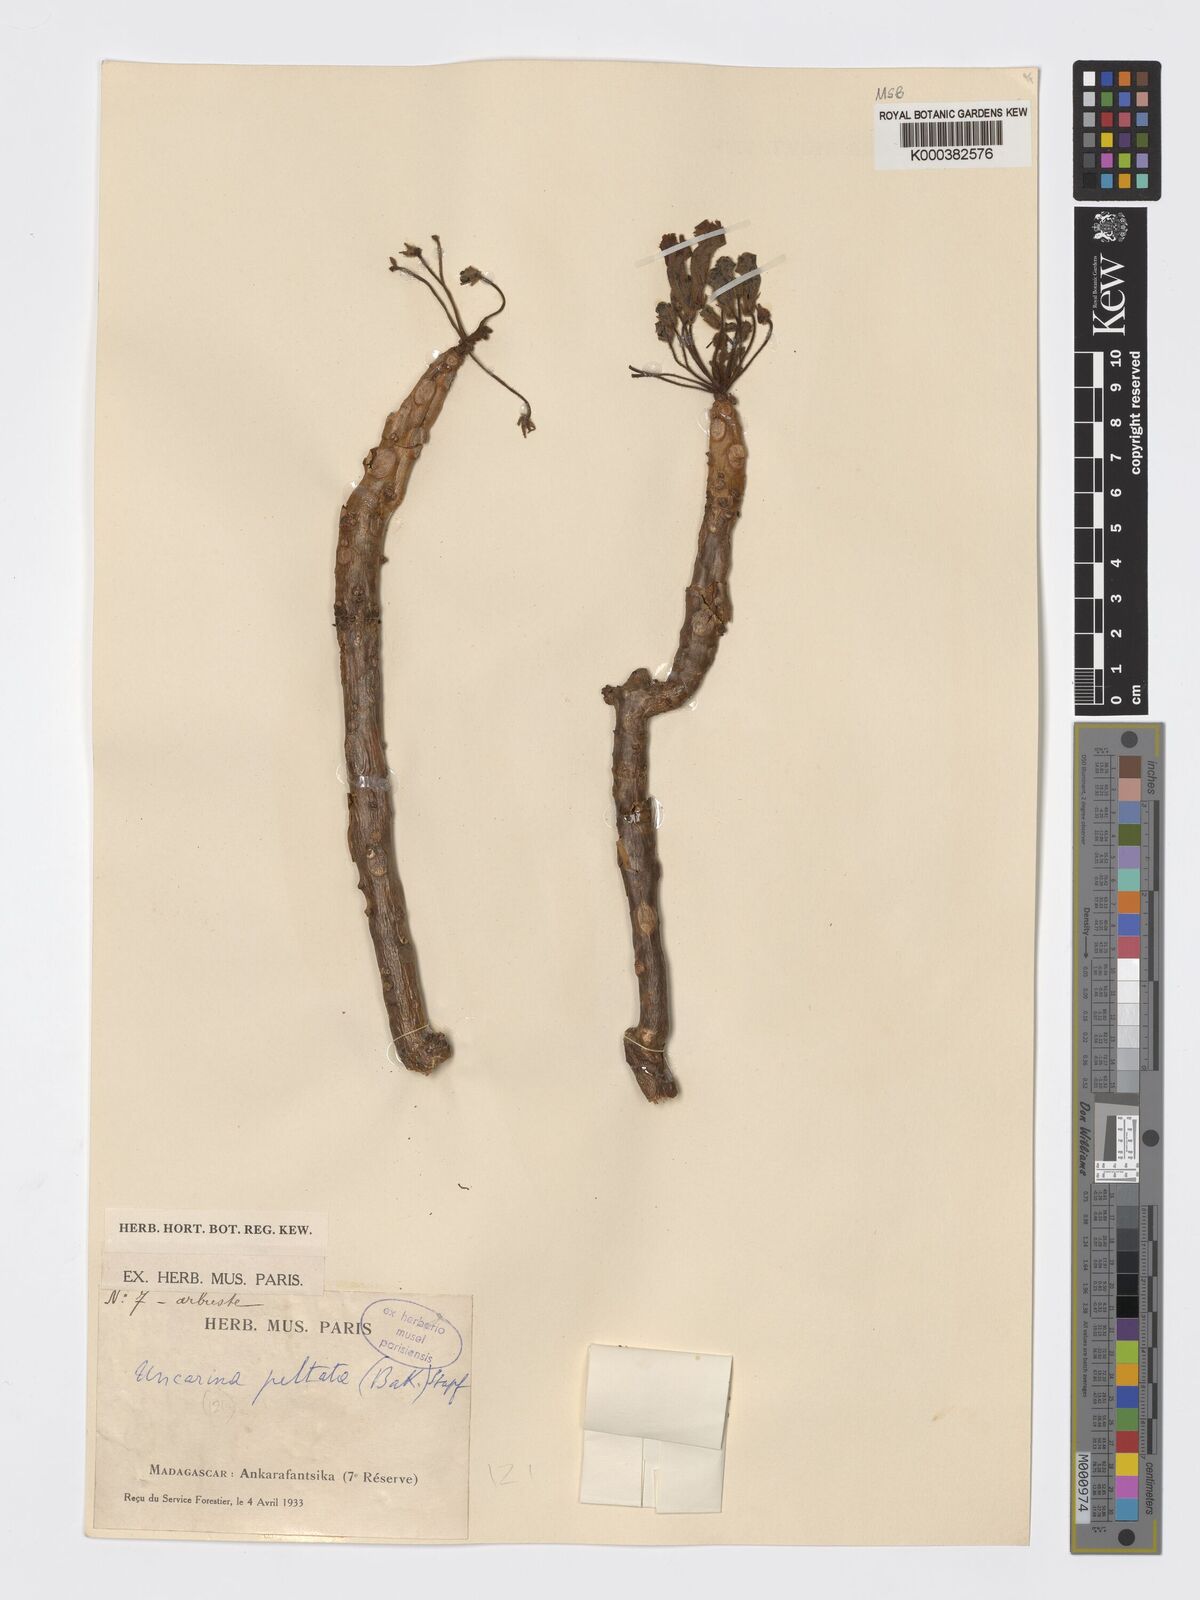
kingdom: Plantae
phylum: Tracheophyta
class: Magnoliopsida
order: Lamiales
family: Pedaliaceae
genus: Uncarina
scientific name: Uncarina peltata
